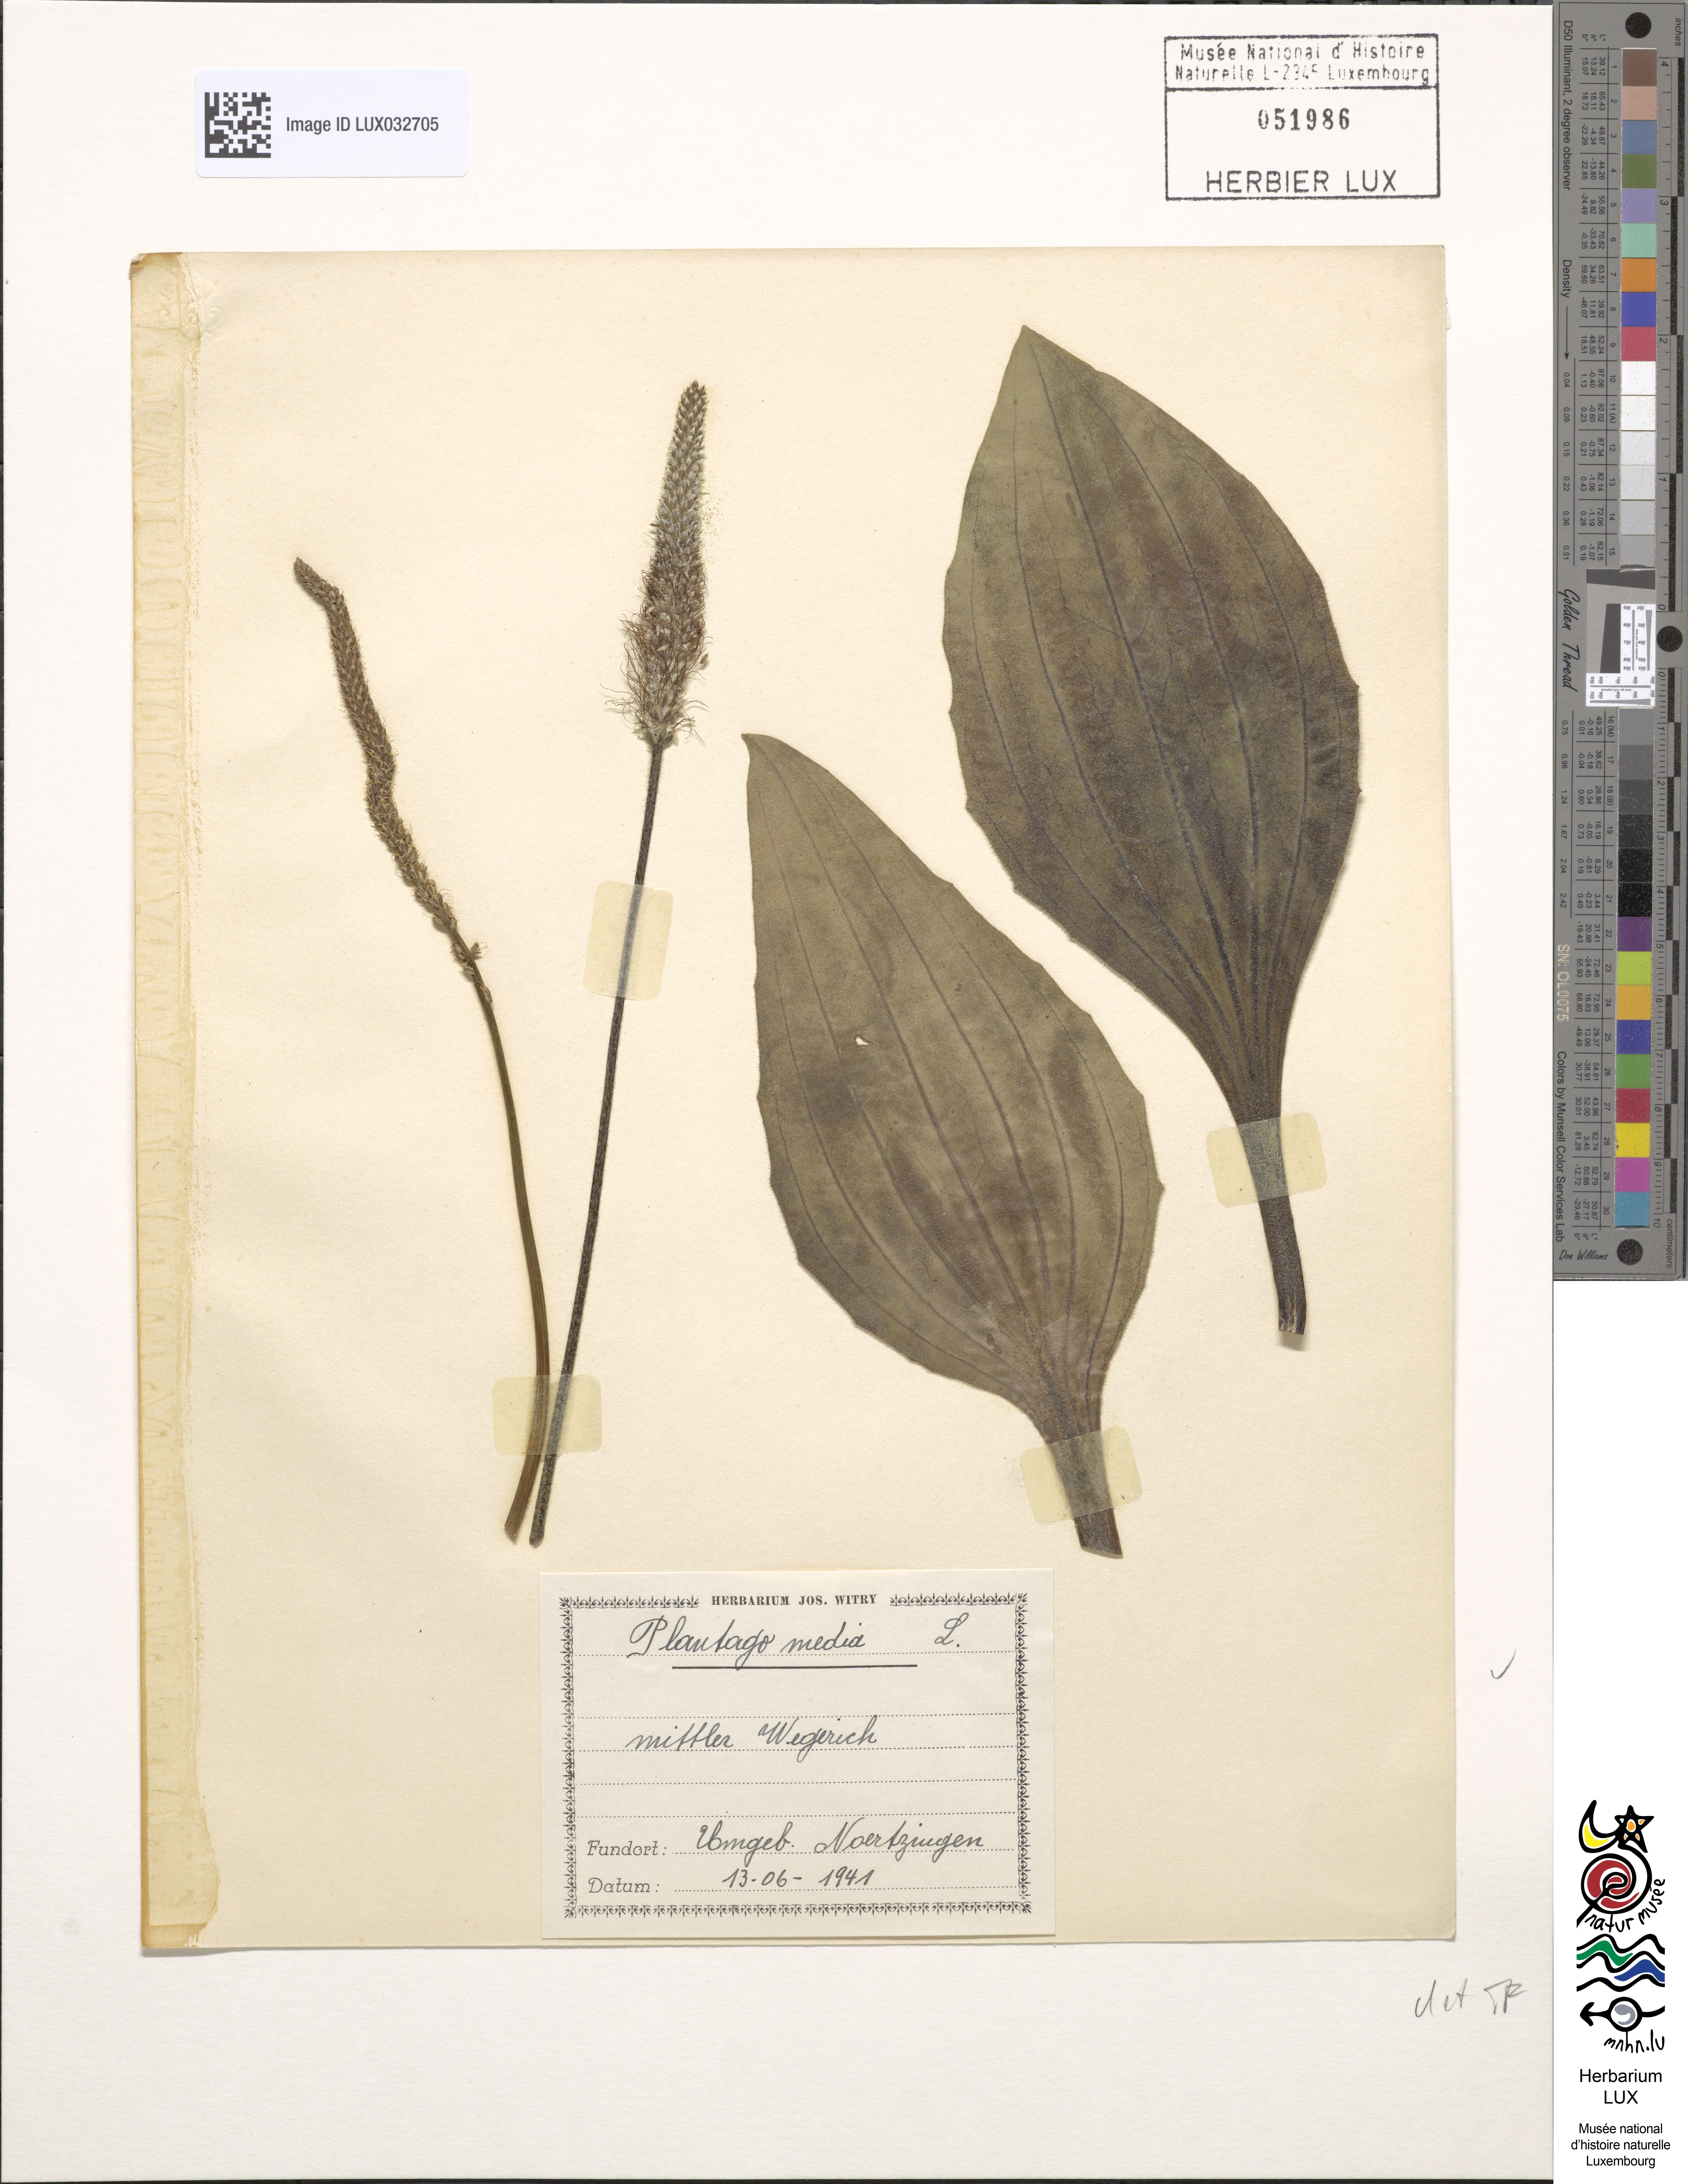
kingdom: Plantae
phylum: Tracheophyta
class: Magnoliopsida
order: Lamiales
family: Plantaginaceae
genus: Plantago
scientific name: Plantago media
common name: Hoary plantain
